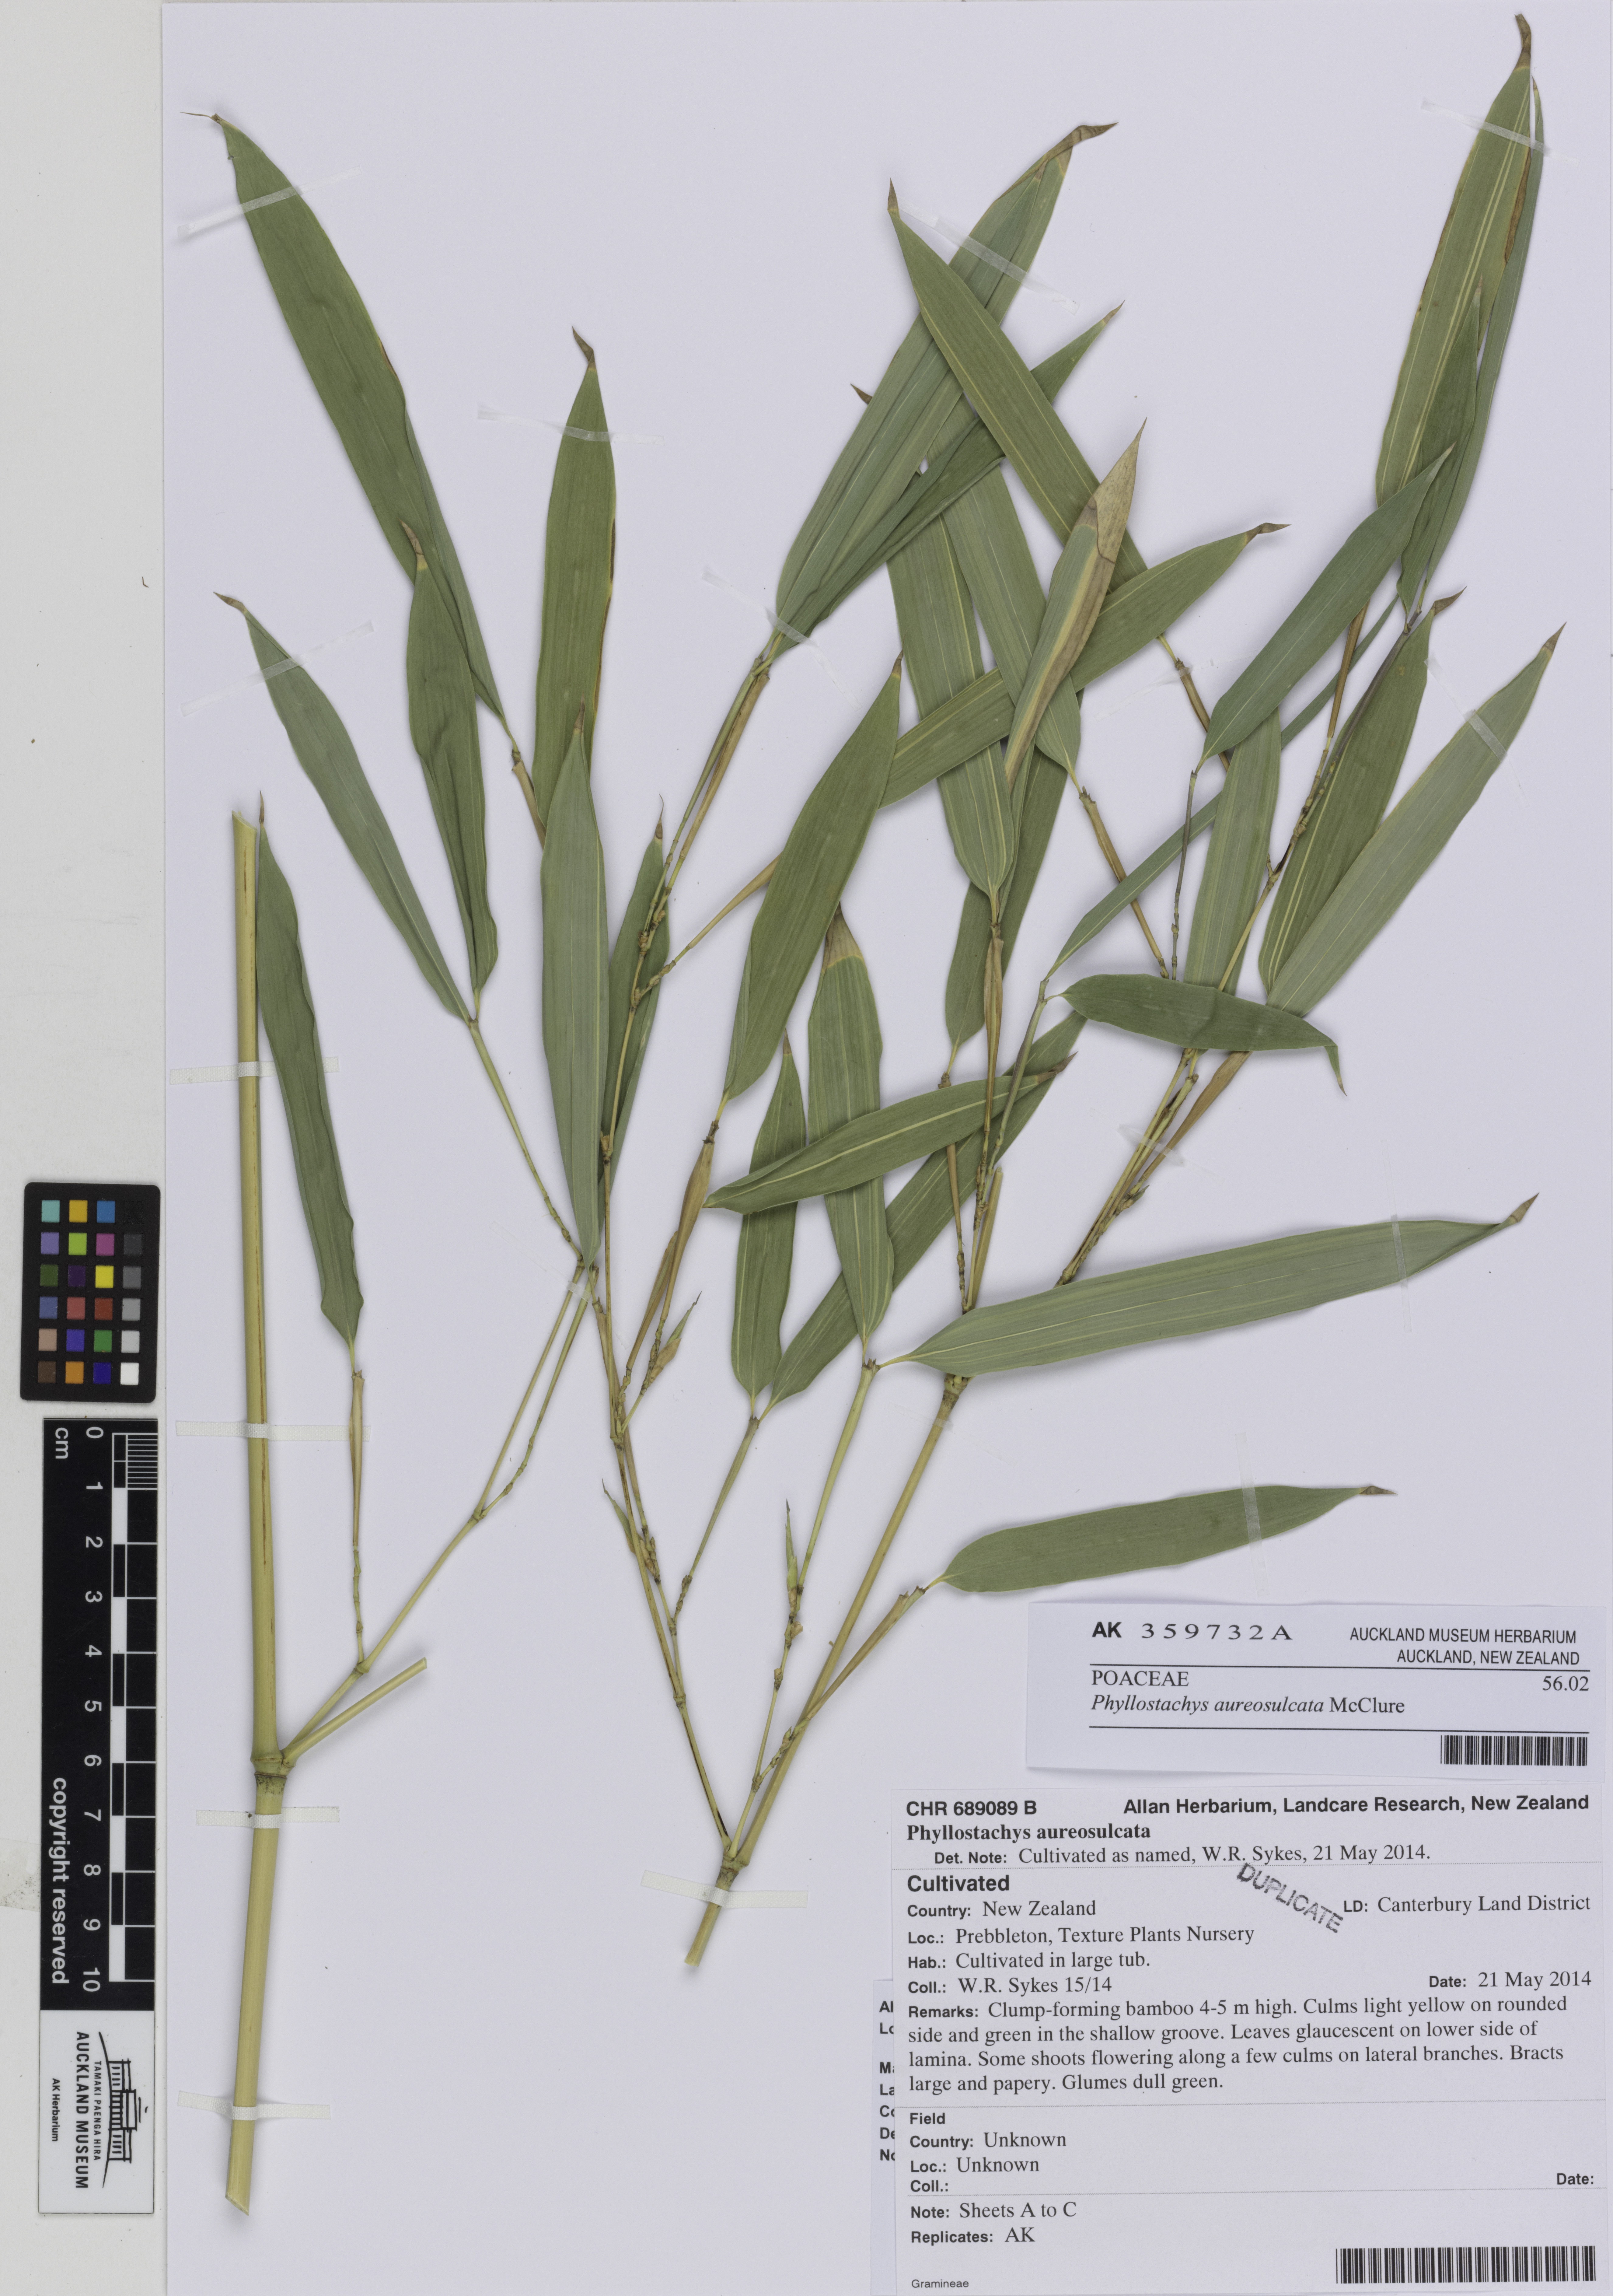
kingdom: Plantae
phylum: Tracheophyta
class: Liliopsida
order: Poales
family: Poaceae
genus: Phyllostachys
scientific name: Phyllostachys aureosulcata
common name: Yellow groove bamboo
